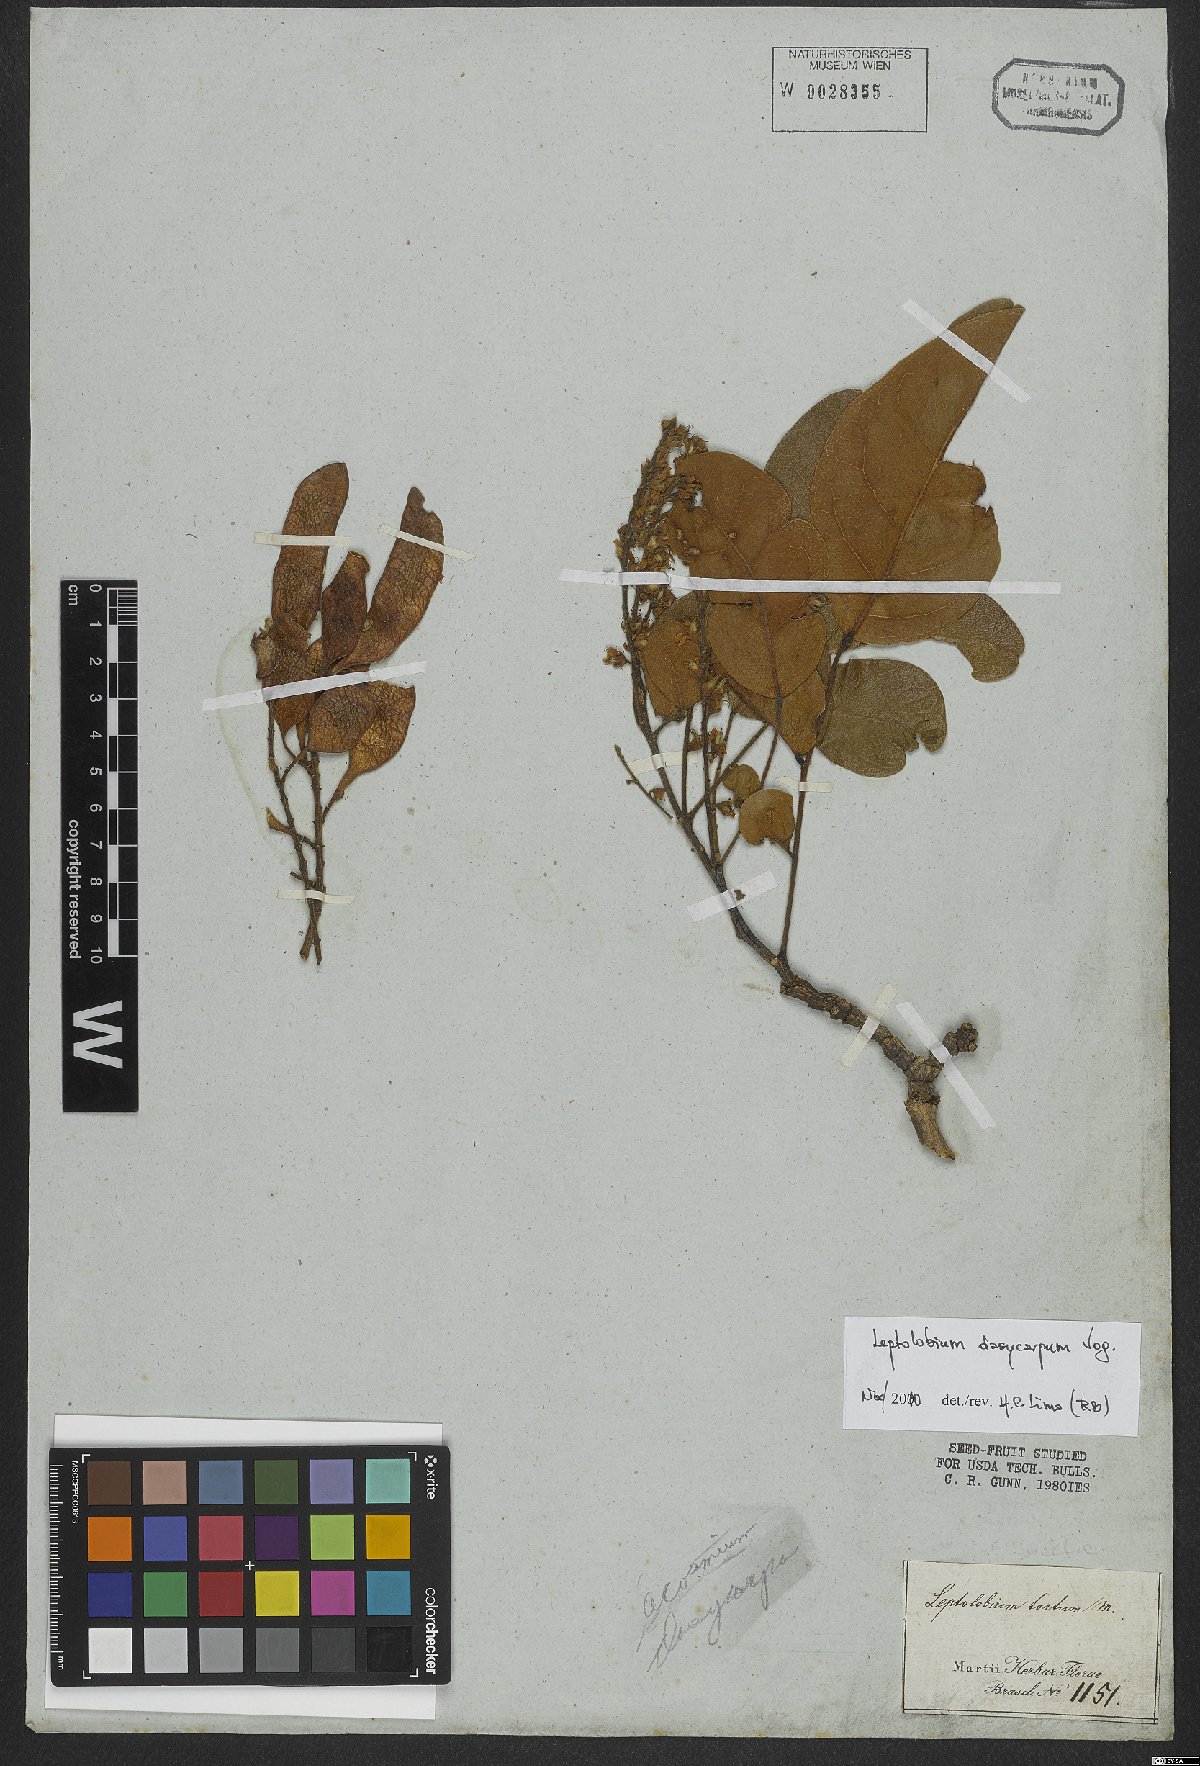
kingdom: Plantae
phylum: Tracheophyta
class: Magnoliopsida
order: Fabales
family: Fabaceae
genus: Leptolobium
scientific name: Leptolobium dasycarpum
